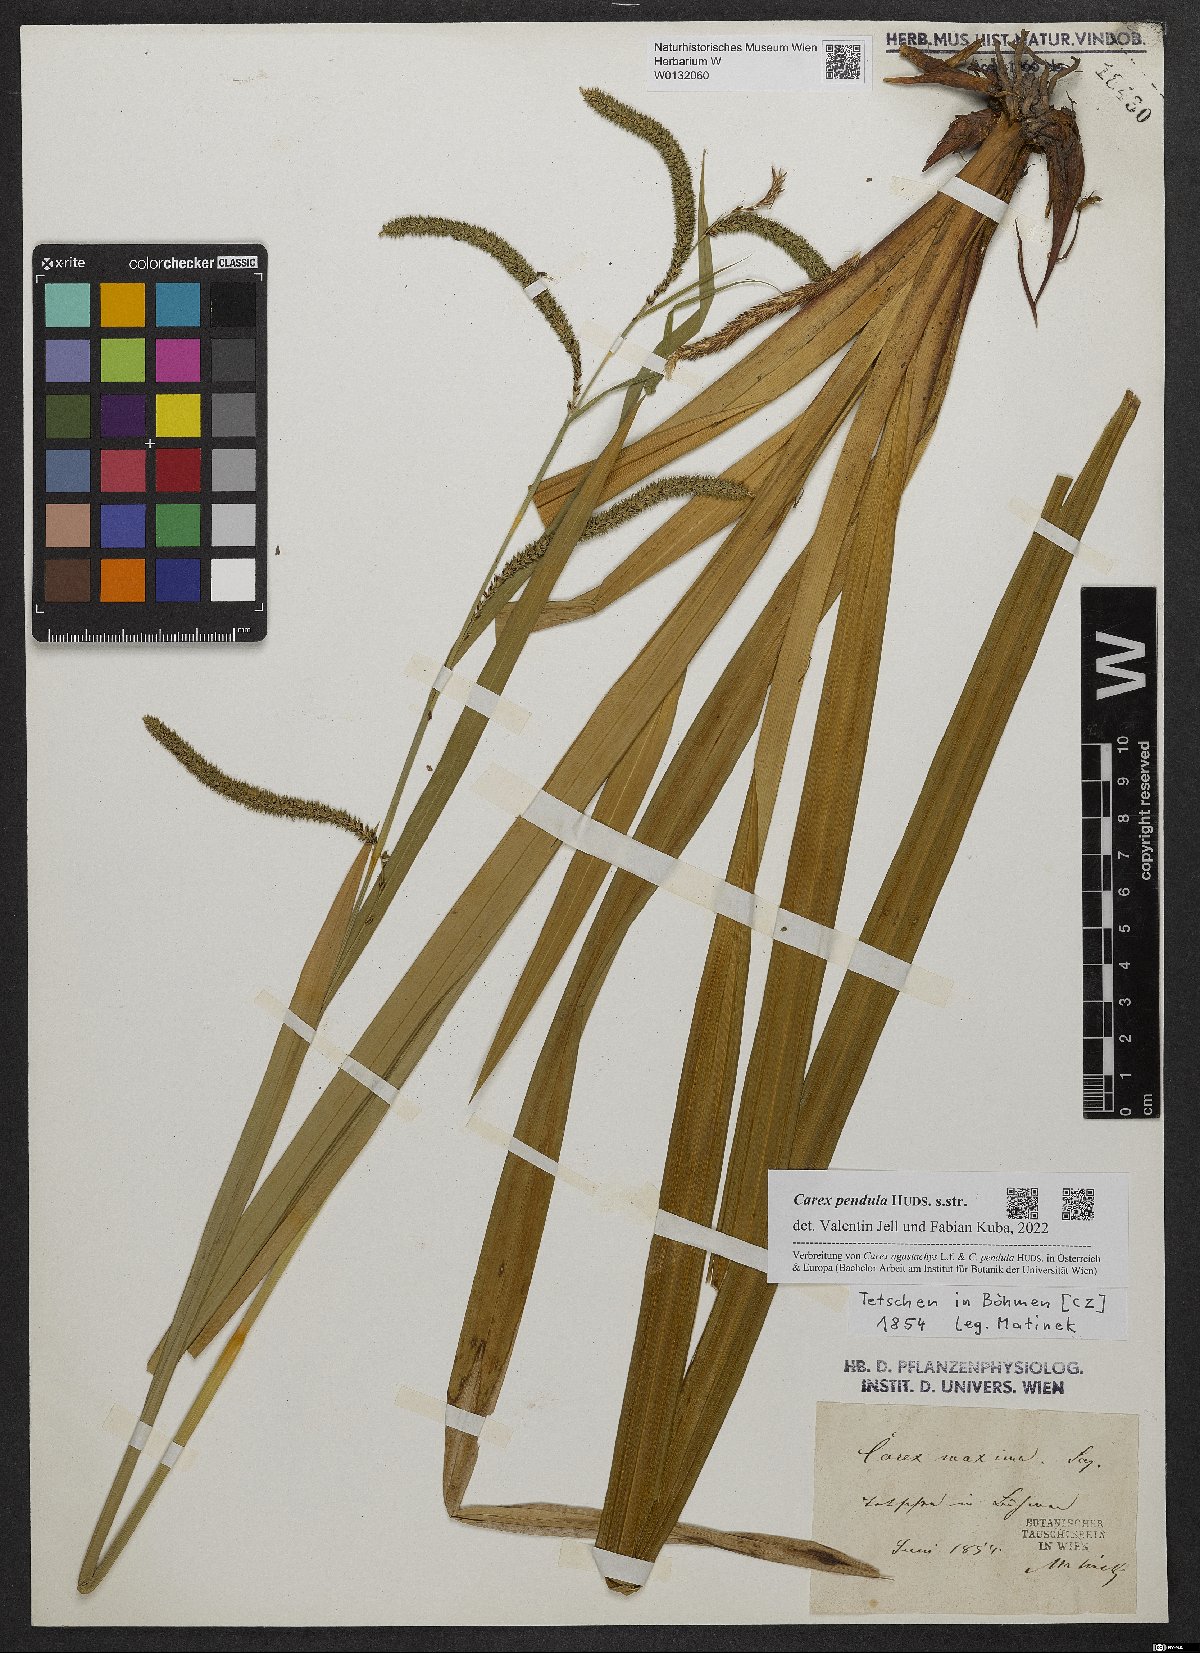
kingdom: Plantae
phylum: Tracheophyta
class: Liliopsida
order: Poales
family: Cyperaceae
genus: Carex
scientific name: Carex pendula
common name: Pendulous sedge
